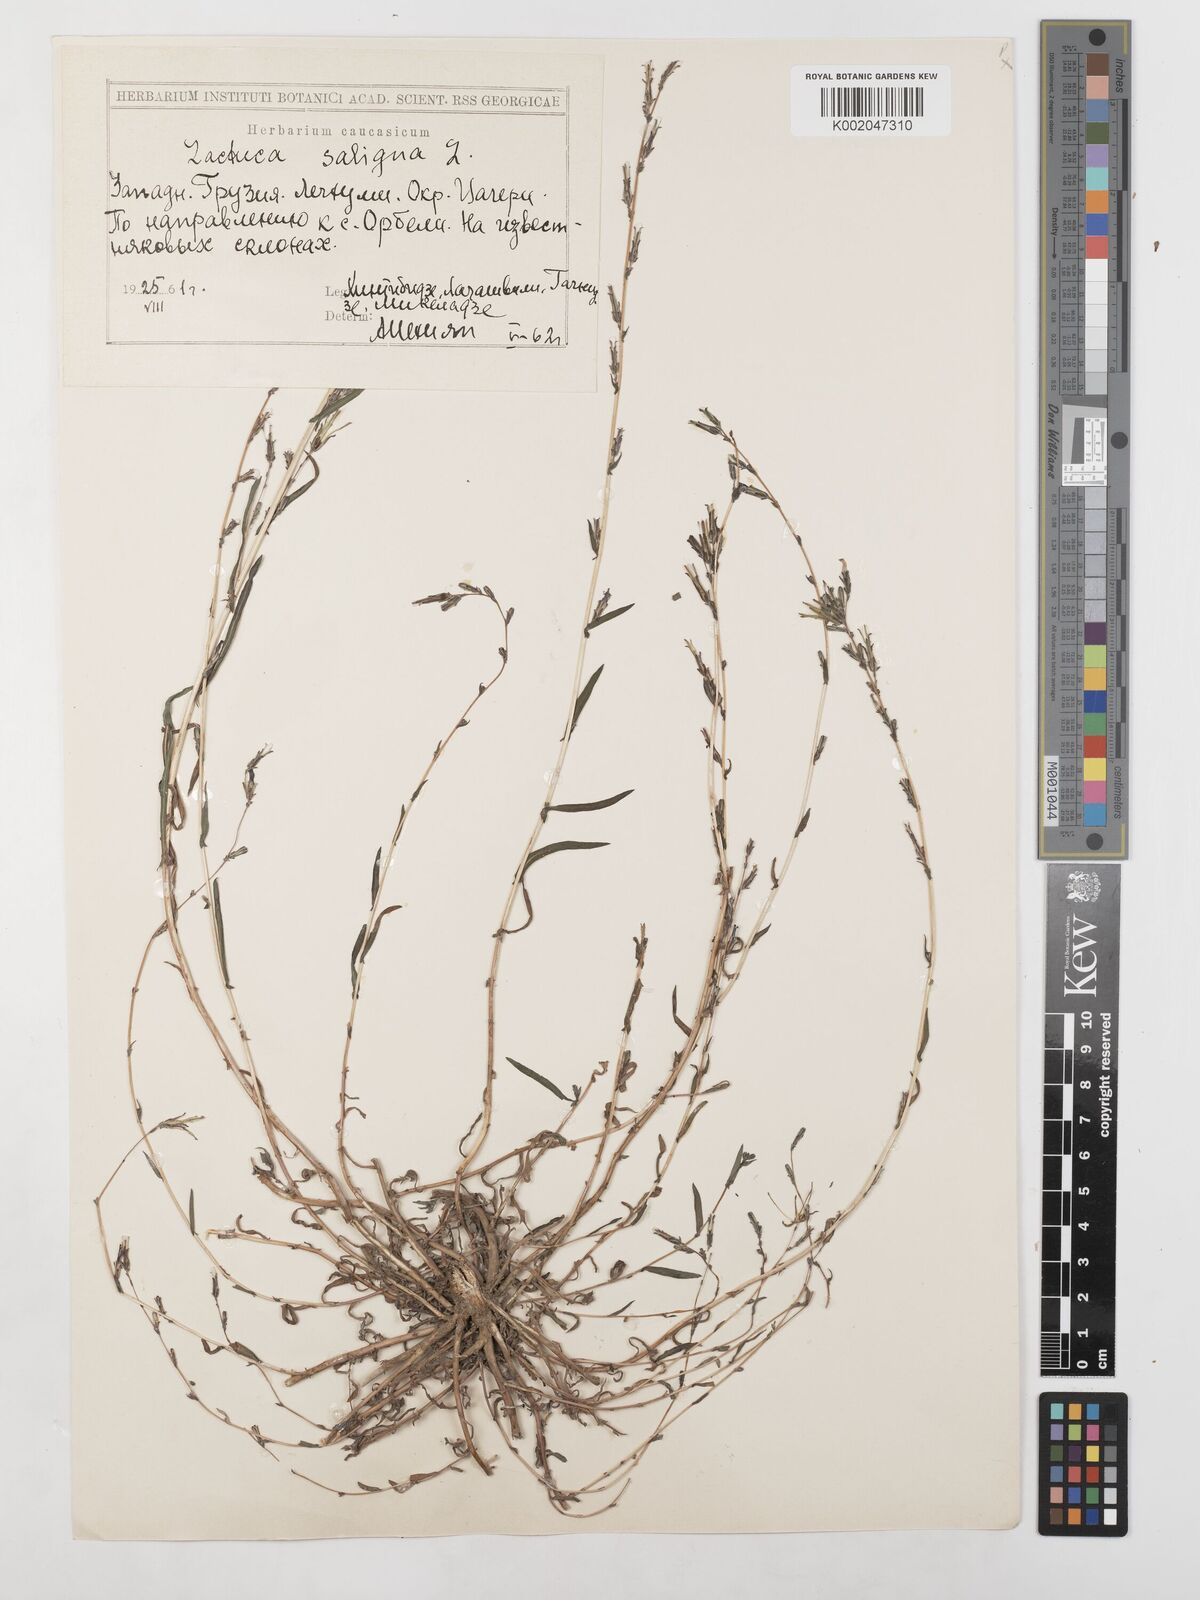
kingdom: Plantae
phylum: Tracheophyta
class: Magnoliopsida
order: Asterales
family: Asteraceae
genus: Lactuca
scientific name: Lactuca saligna
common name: Wild lettuce
